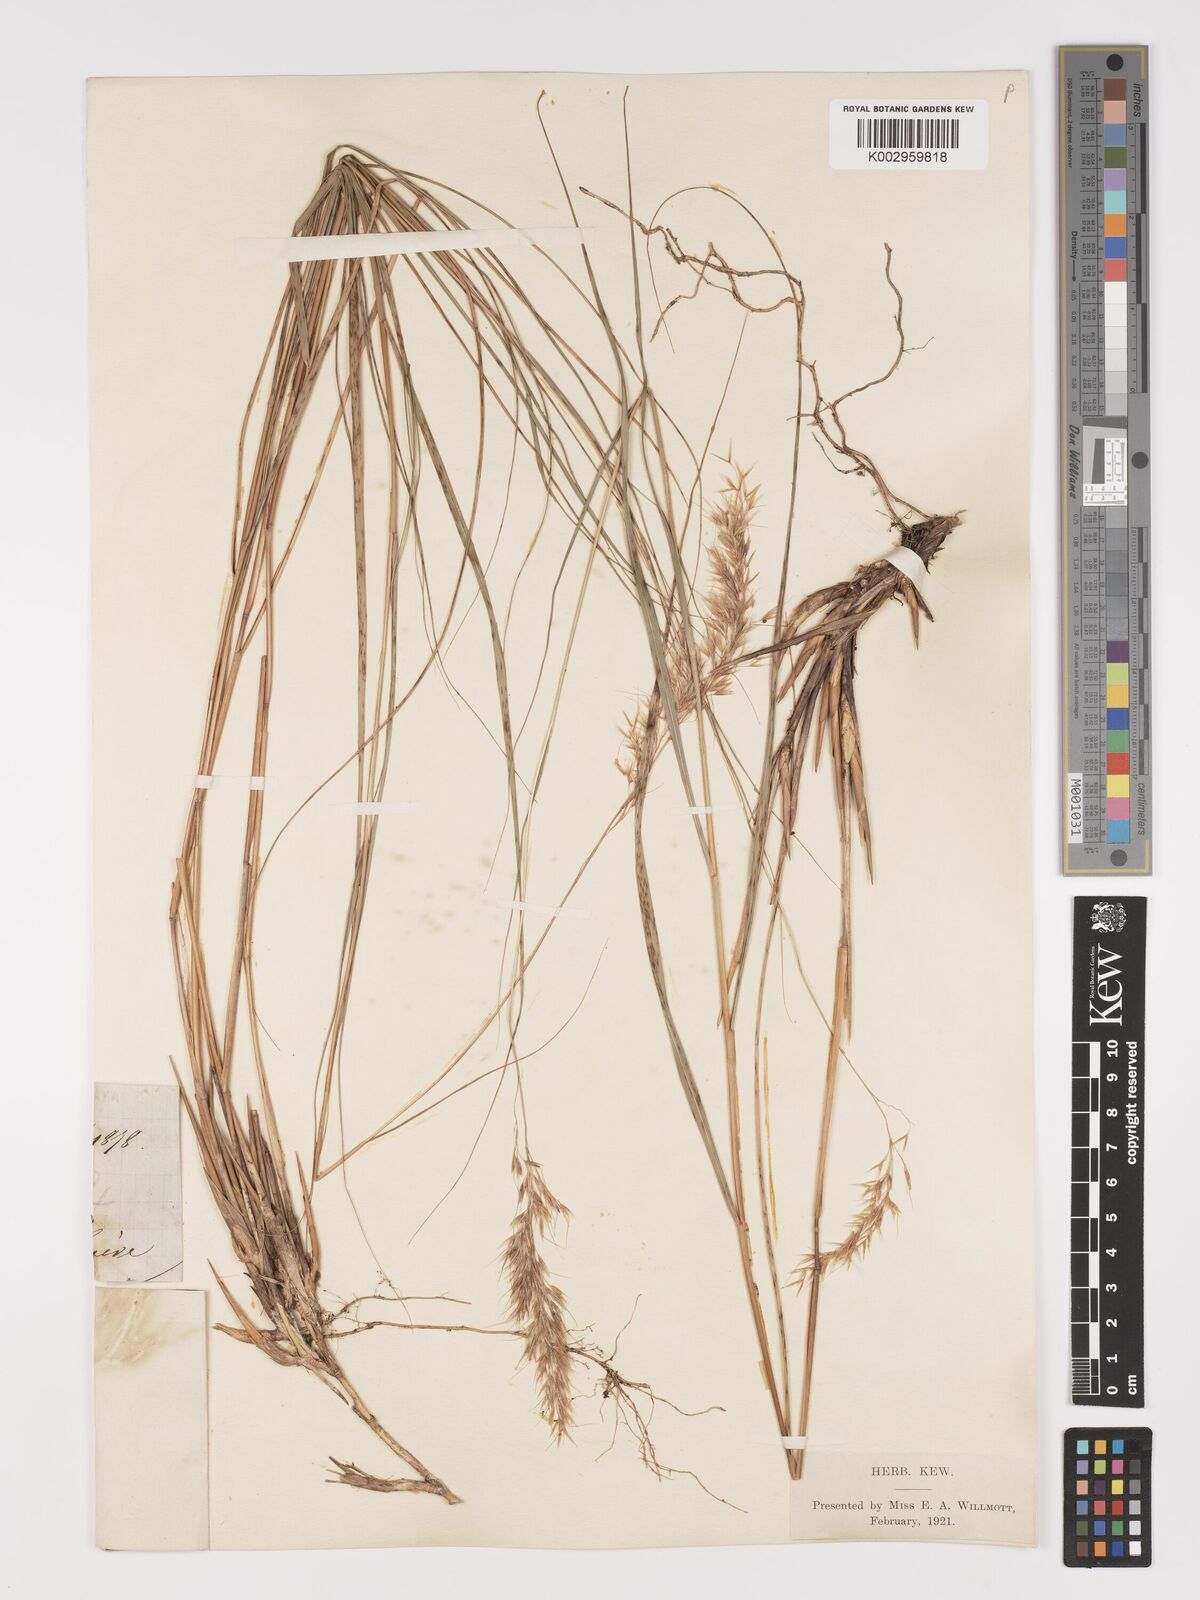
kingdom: Plantae
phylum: Tracheophyta
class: Liliopsida
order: Poales
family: Poaceae
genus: Achnatherum
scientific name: Achnatherum calamagrostis
